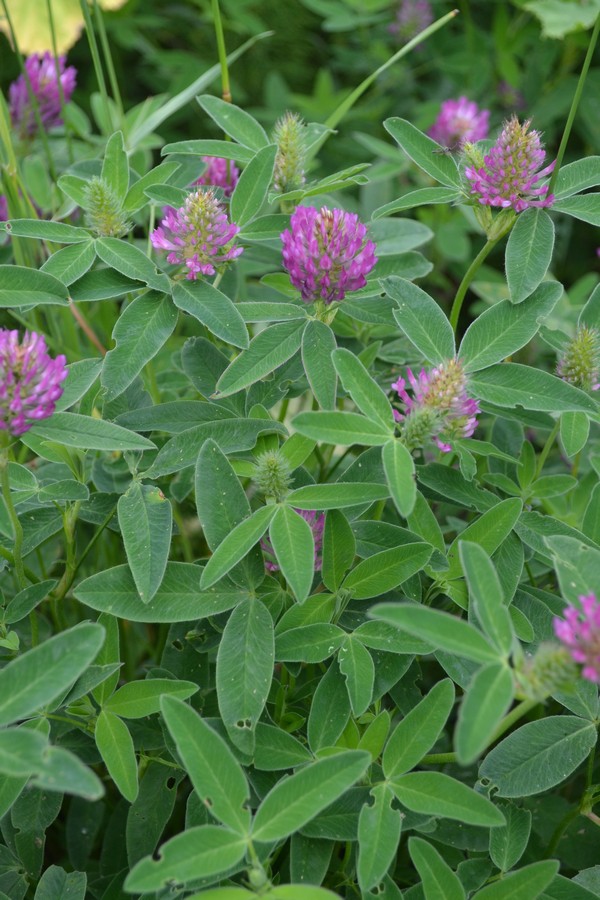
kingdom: Plantae
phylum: Tracheophyta
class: Magnoliopsida
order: Fabales
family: Fabaceae
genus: Trifolium
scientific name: Trifolium medium
